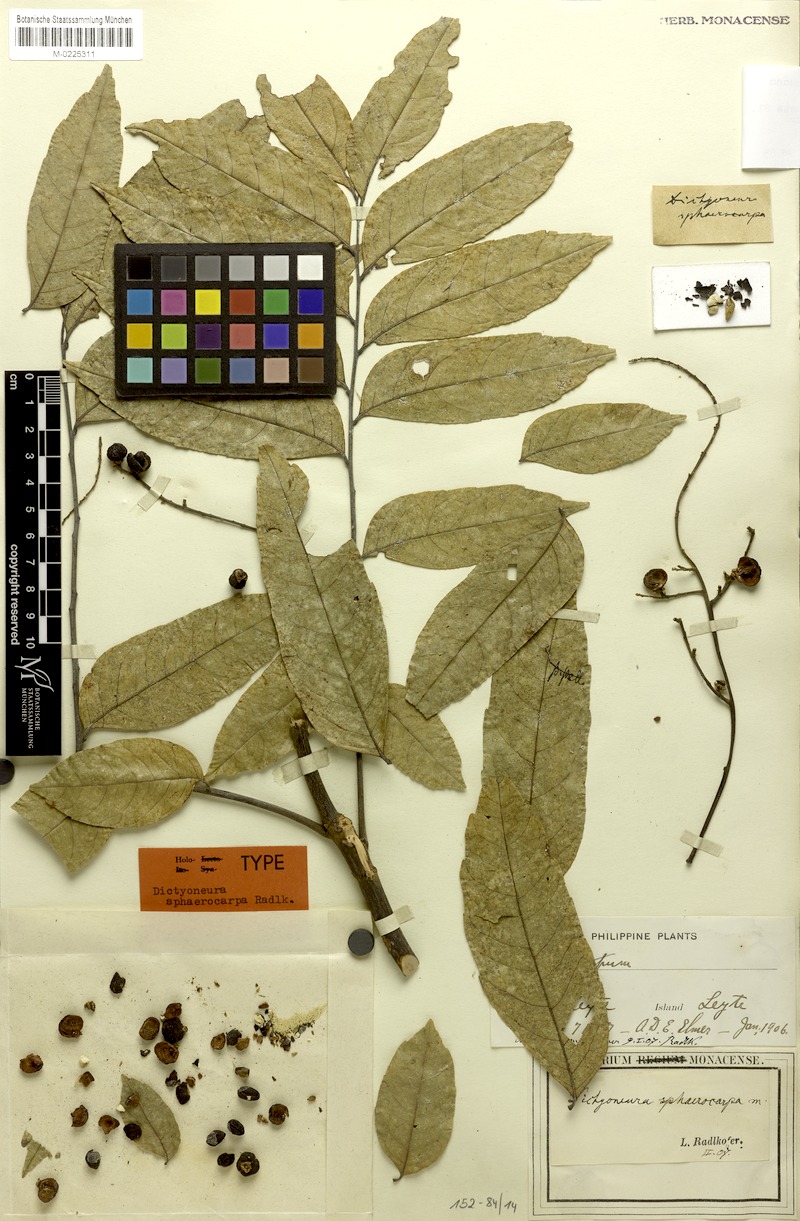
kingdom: Plantae
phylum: Tracheophyta
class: Magnoliopsida
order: Sapindales
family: Sapindaceae
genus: Dictyoneura
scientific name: Dictyoneura acuminata
